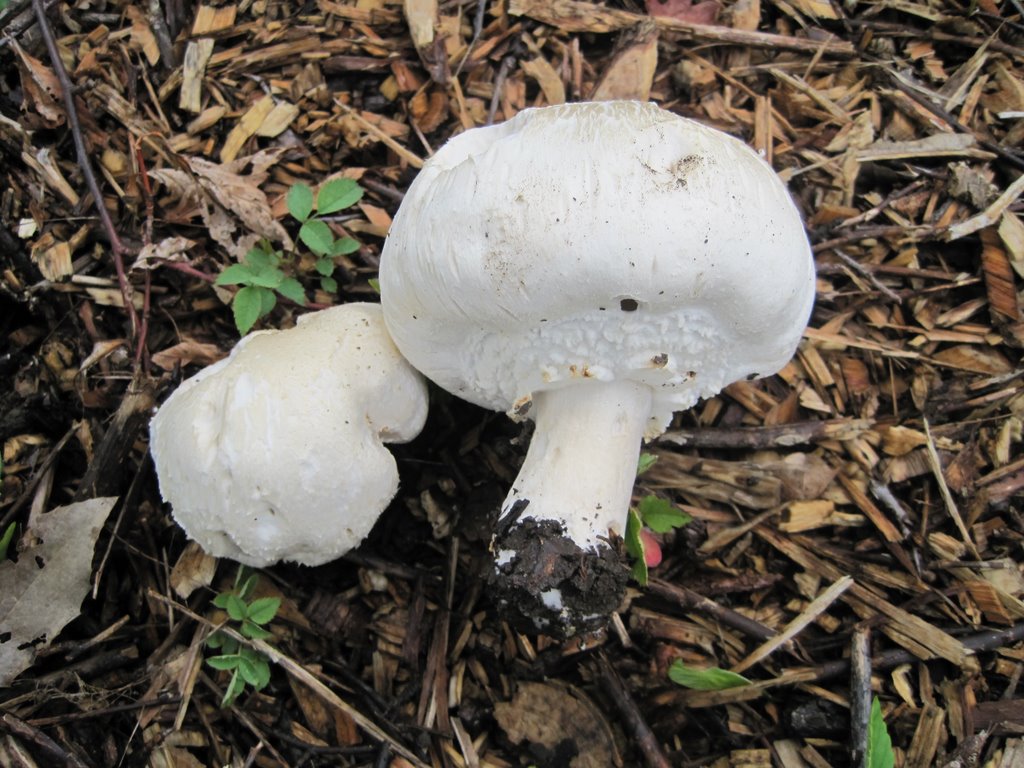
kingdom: Fungi
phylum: Basidiomycota
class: Agaricomycetes
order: Agaricales
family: Agaricaceae
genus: Agaricus
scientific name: Agaricus arvensis
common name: ager-champignon
